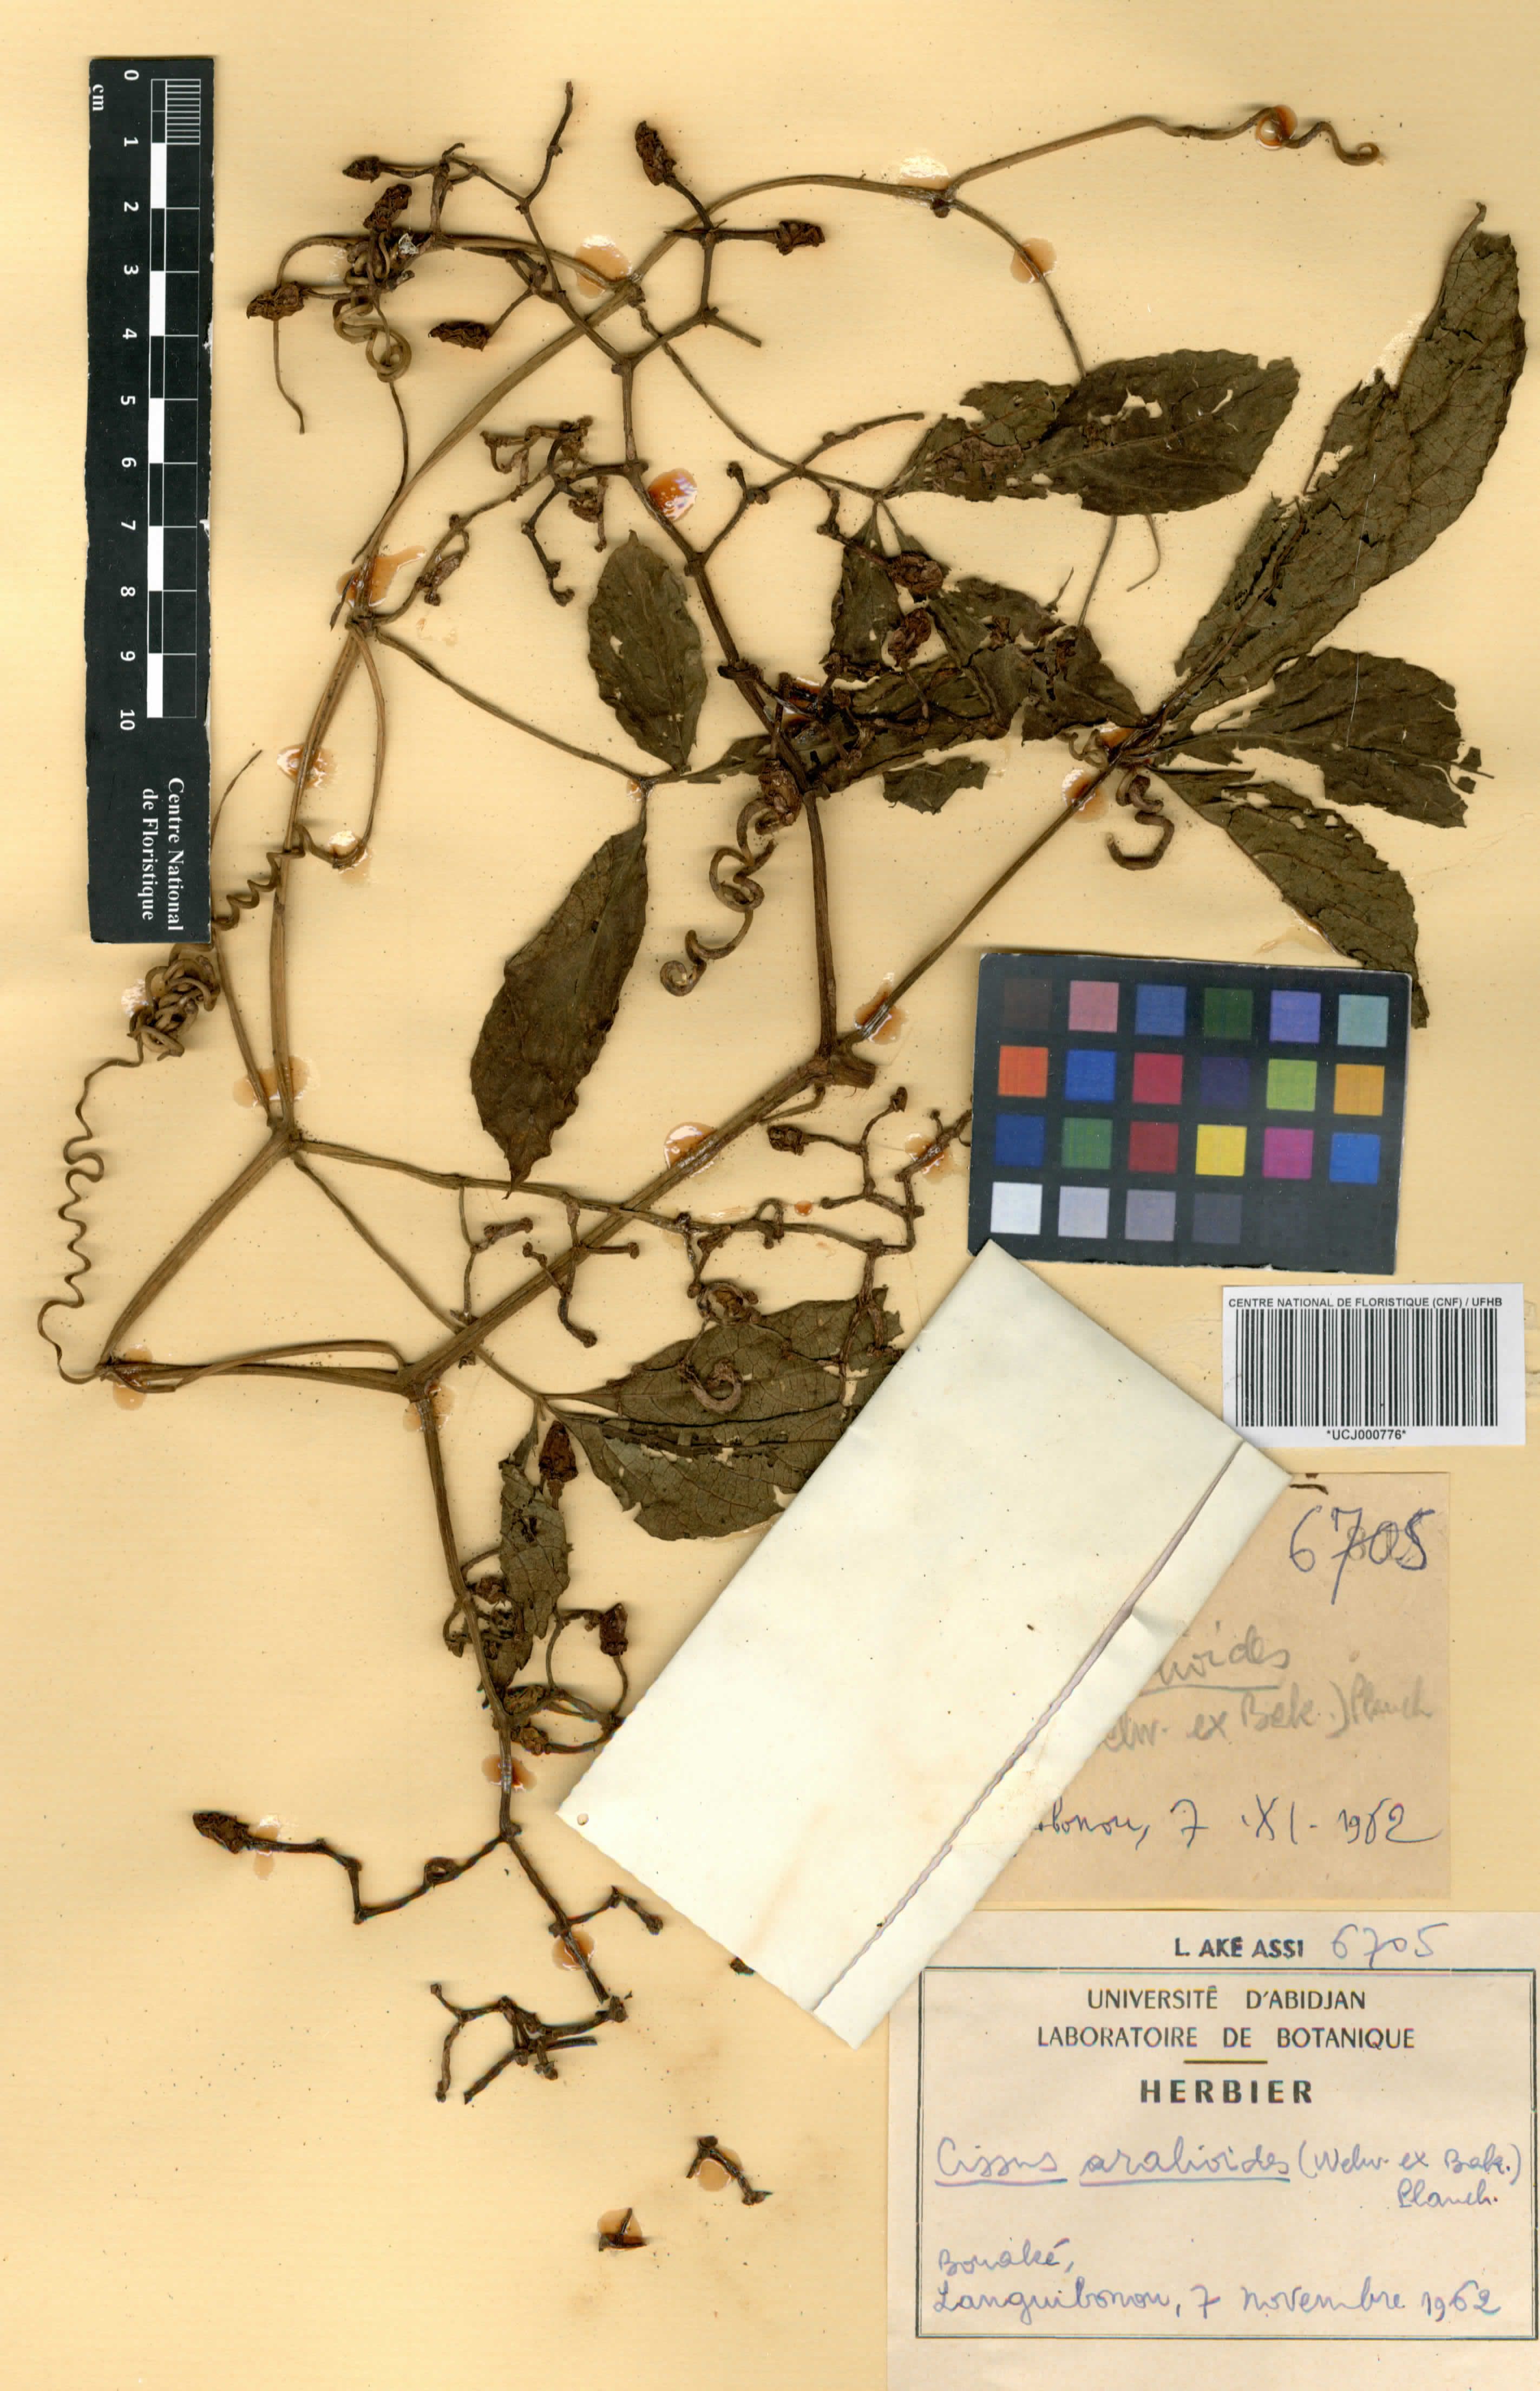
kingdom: Plantae
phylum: Tracheophyta
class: Magnoliopsida
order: Vitales
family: Vitaceae
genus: Cissus
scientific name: Cissus aralioides
